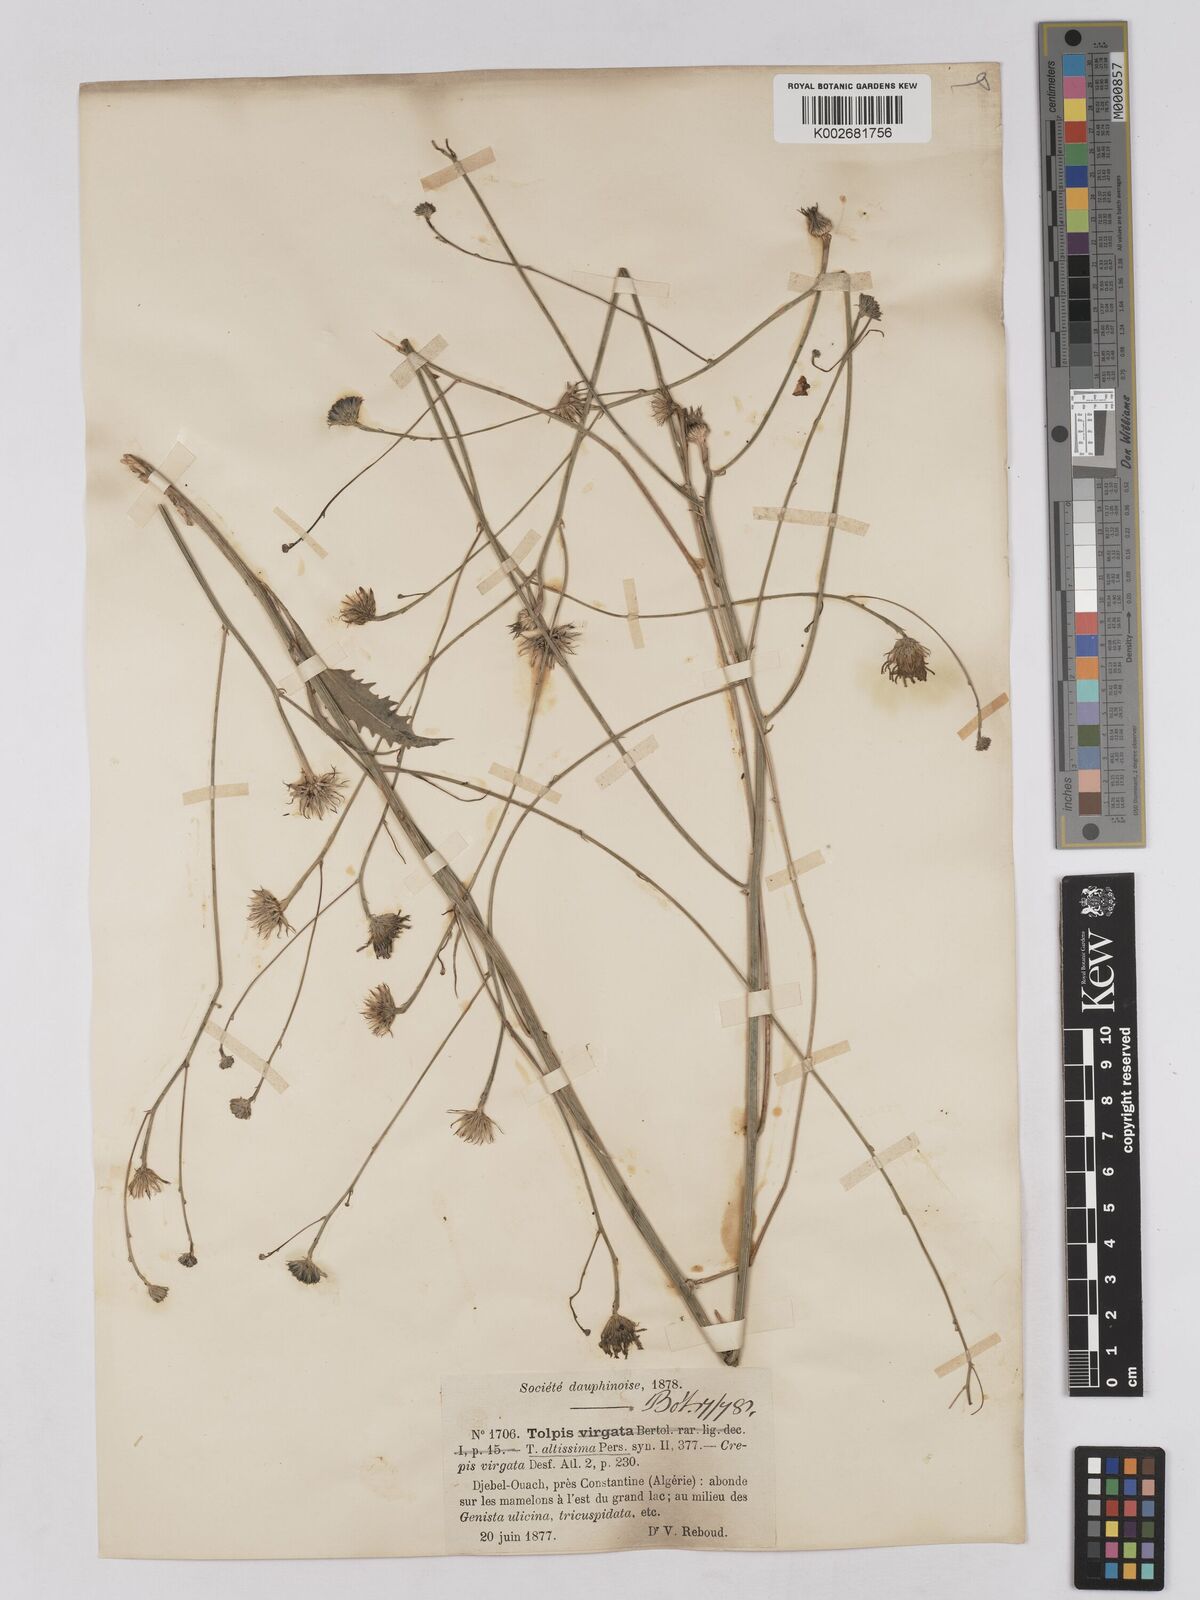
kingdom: Plantae
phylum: Tracheophyta
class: Magnoliopsida
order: Asterales
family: Asteraceae
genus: Tolpis
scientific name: Tolpis virgata
